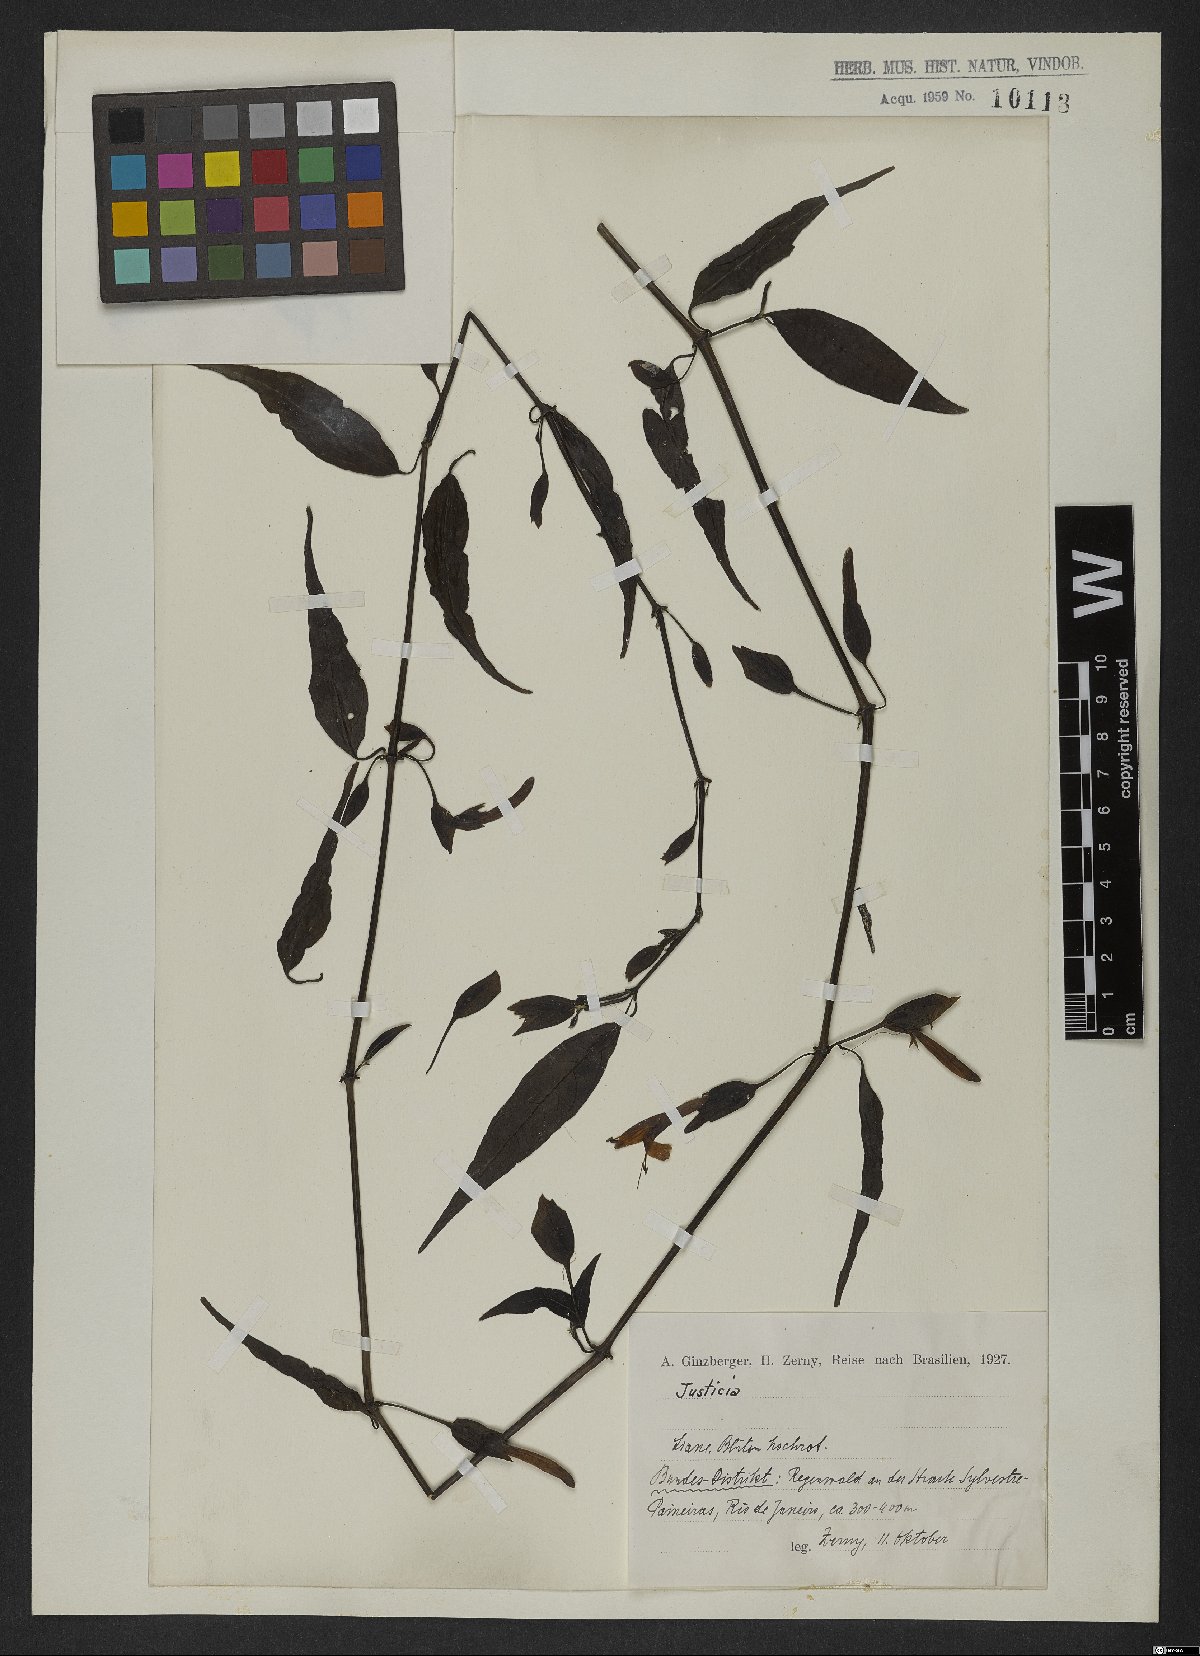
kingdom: Plantae
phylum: Tracheophyta
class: Magnoliopsida
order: Lamiales
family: Acanthaceae
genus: Justicia
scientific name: Justicia
